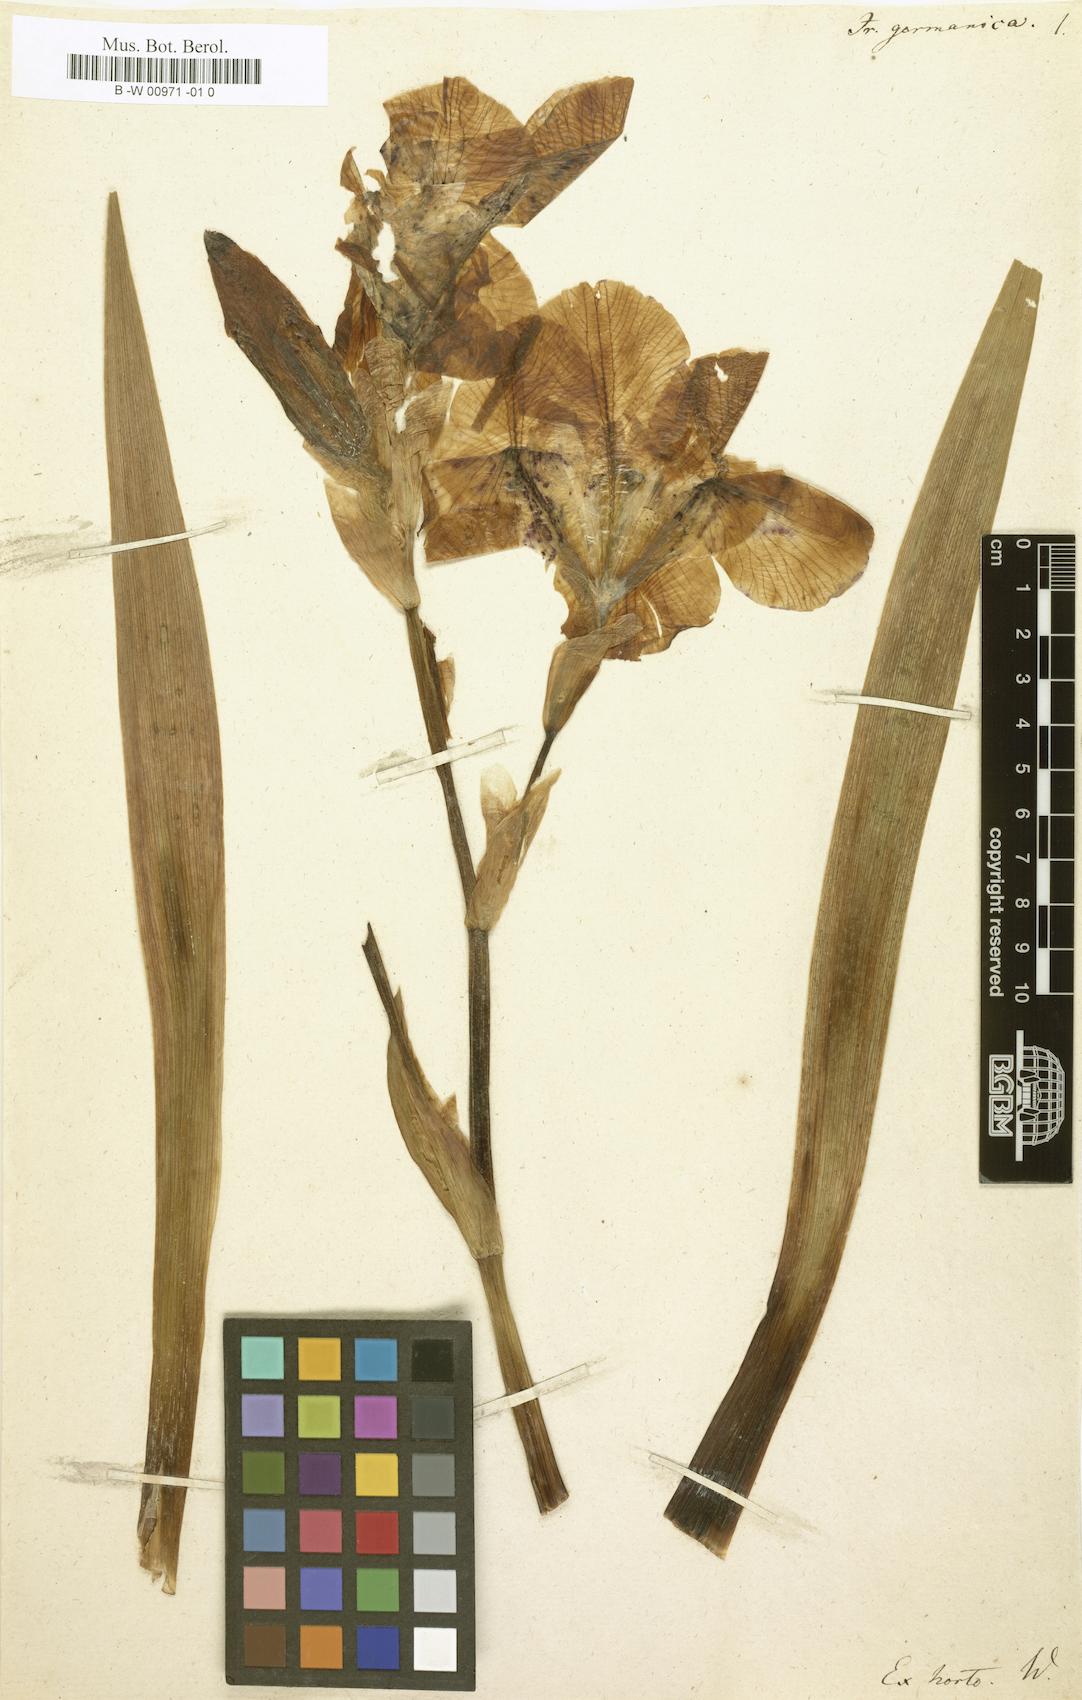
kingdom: Plantae
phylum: Tracheophyta
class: Liliopsida
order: Asparagales
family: Iridaceae
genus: Iris
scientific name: Iris germanica
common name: German iris
